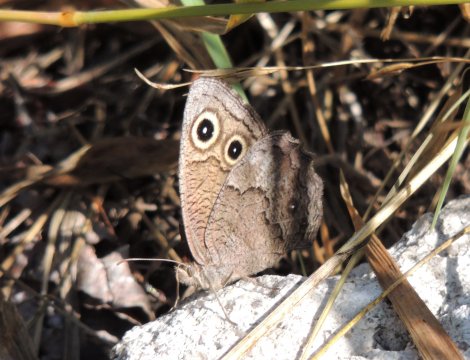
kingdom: Animalia
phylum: Arthropoda
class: Insecta
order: Lepidoptera
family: Nymphalidae
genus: Cercyonis
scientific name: Cercyonis sthenele
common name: Great Basin Wood-Nymph
